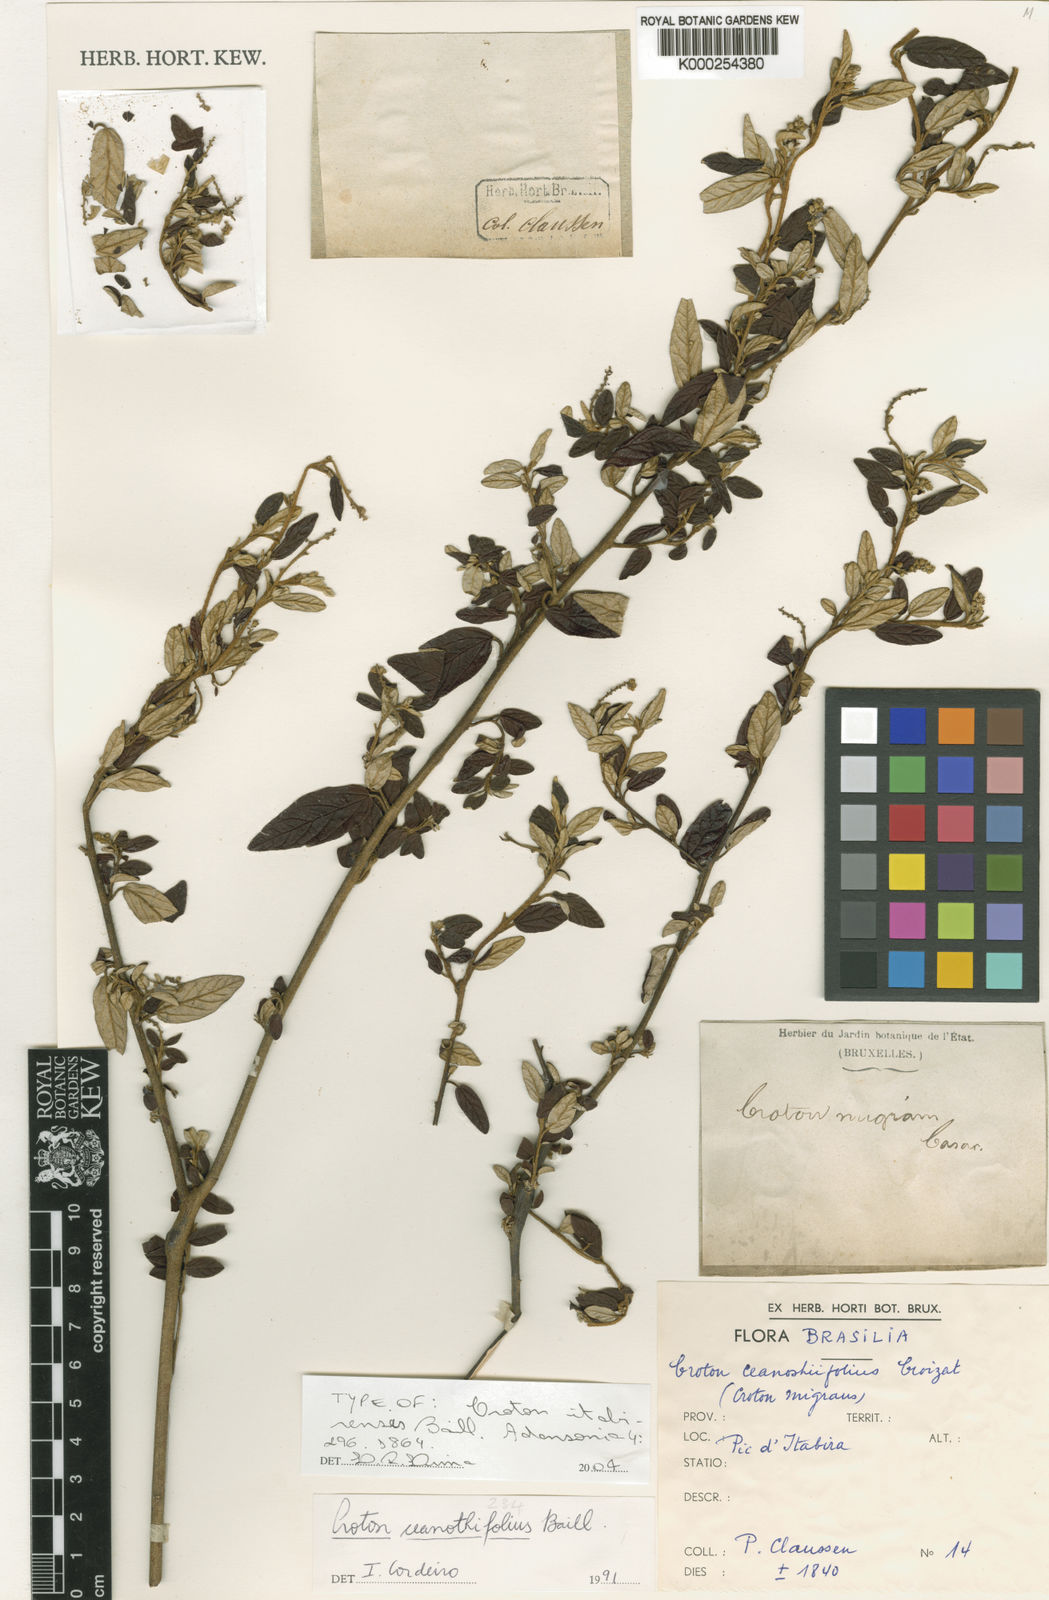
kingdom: Plantae
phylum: Tracheophyta
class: Magnoliopsida
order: Malpighiales
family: Euphorbiaceae
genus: Croton
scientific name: Croton ceanothifolius
